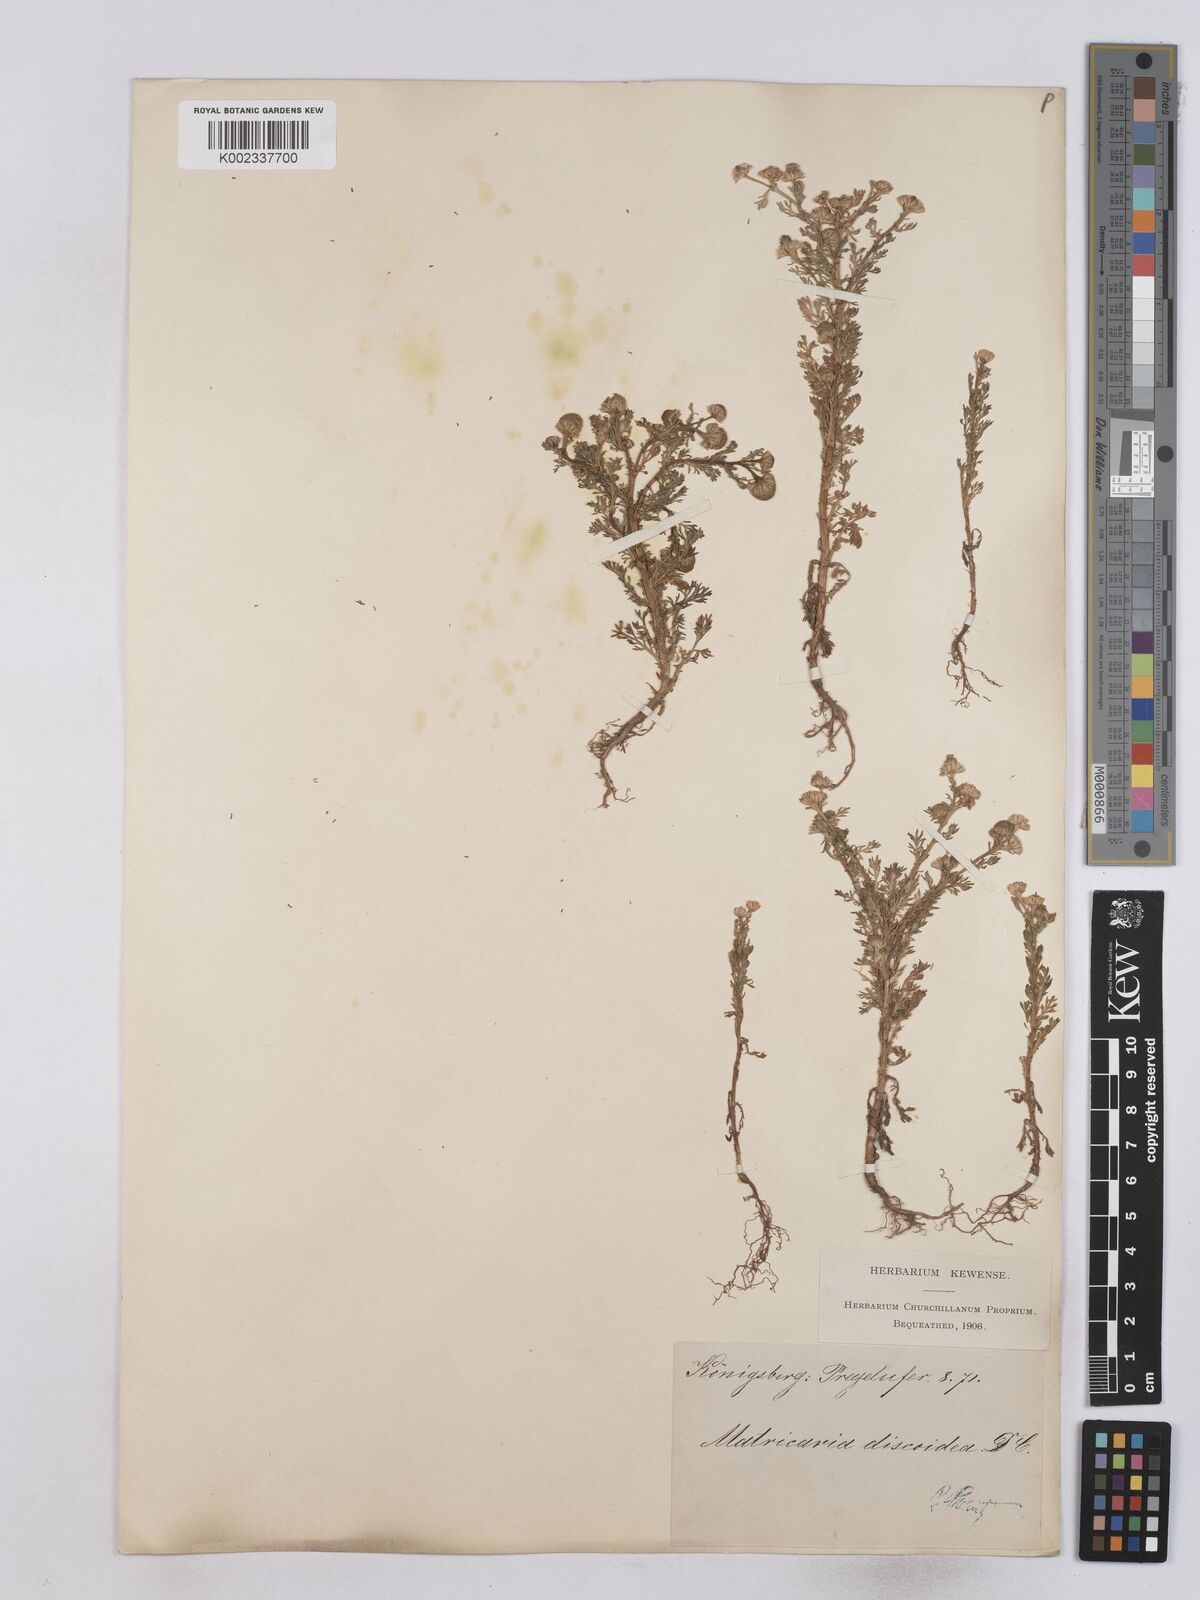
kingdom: Plantae
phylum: Tracheophyta
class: Magnoliopsida
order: Asterales
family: Asteraceae
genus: Matricaria
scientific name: Matricaria discoidea
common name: Disc mayweed
